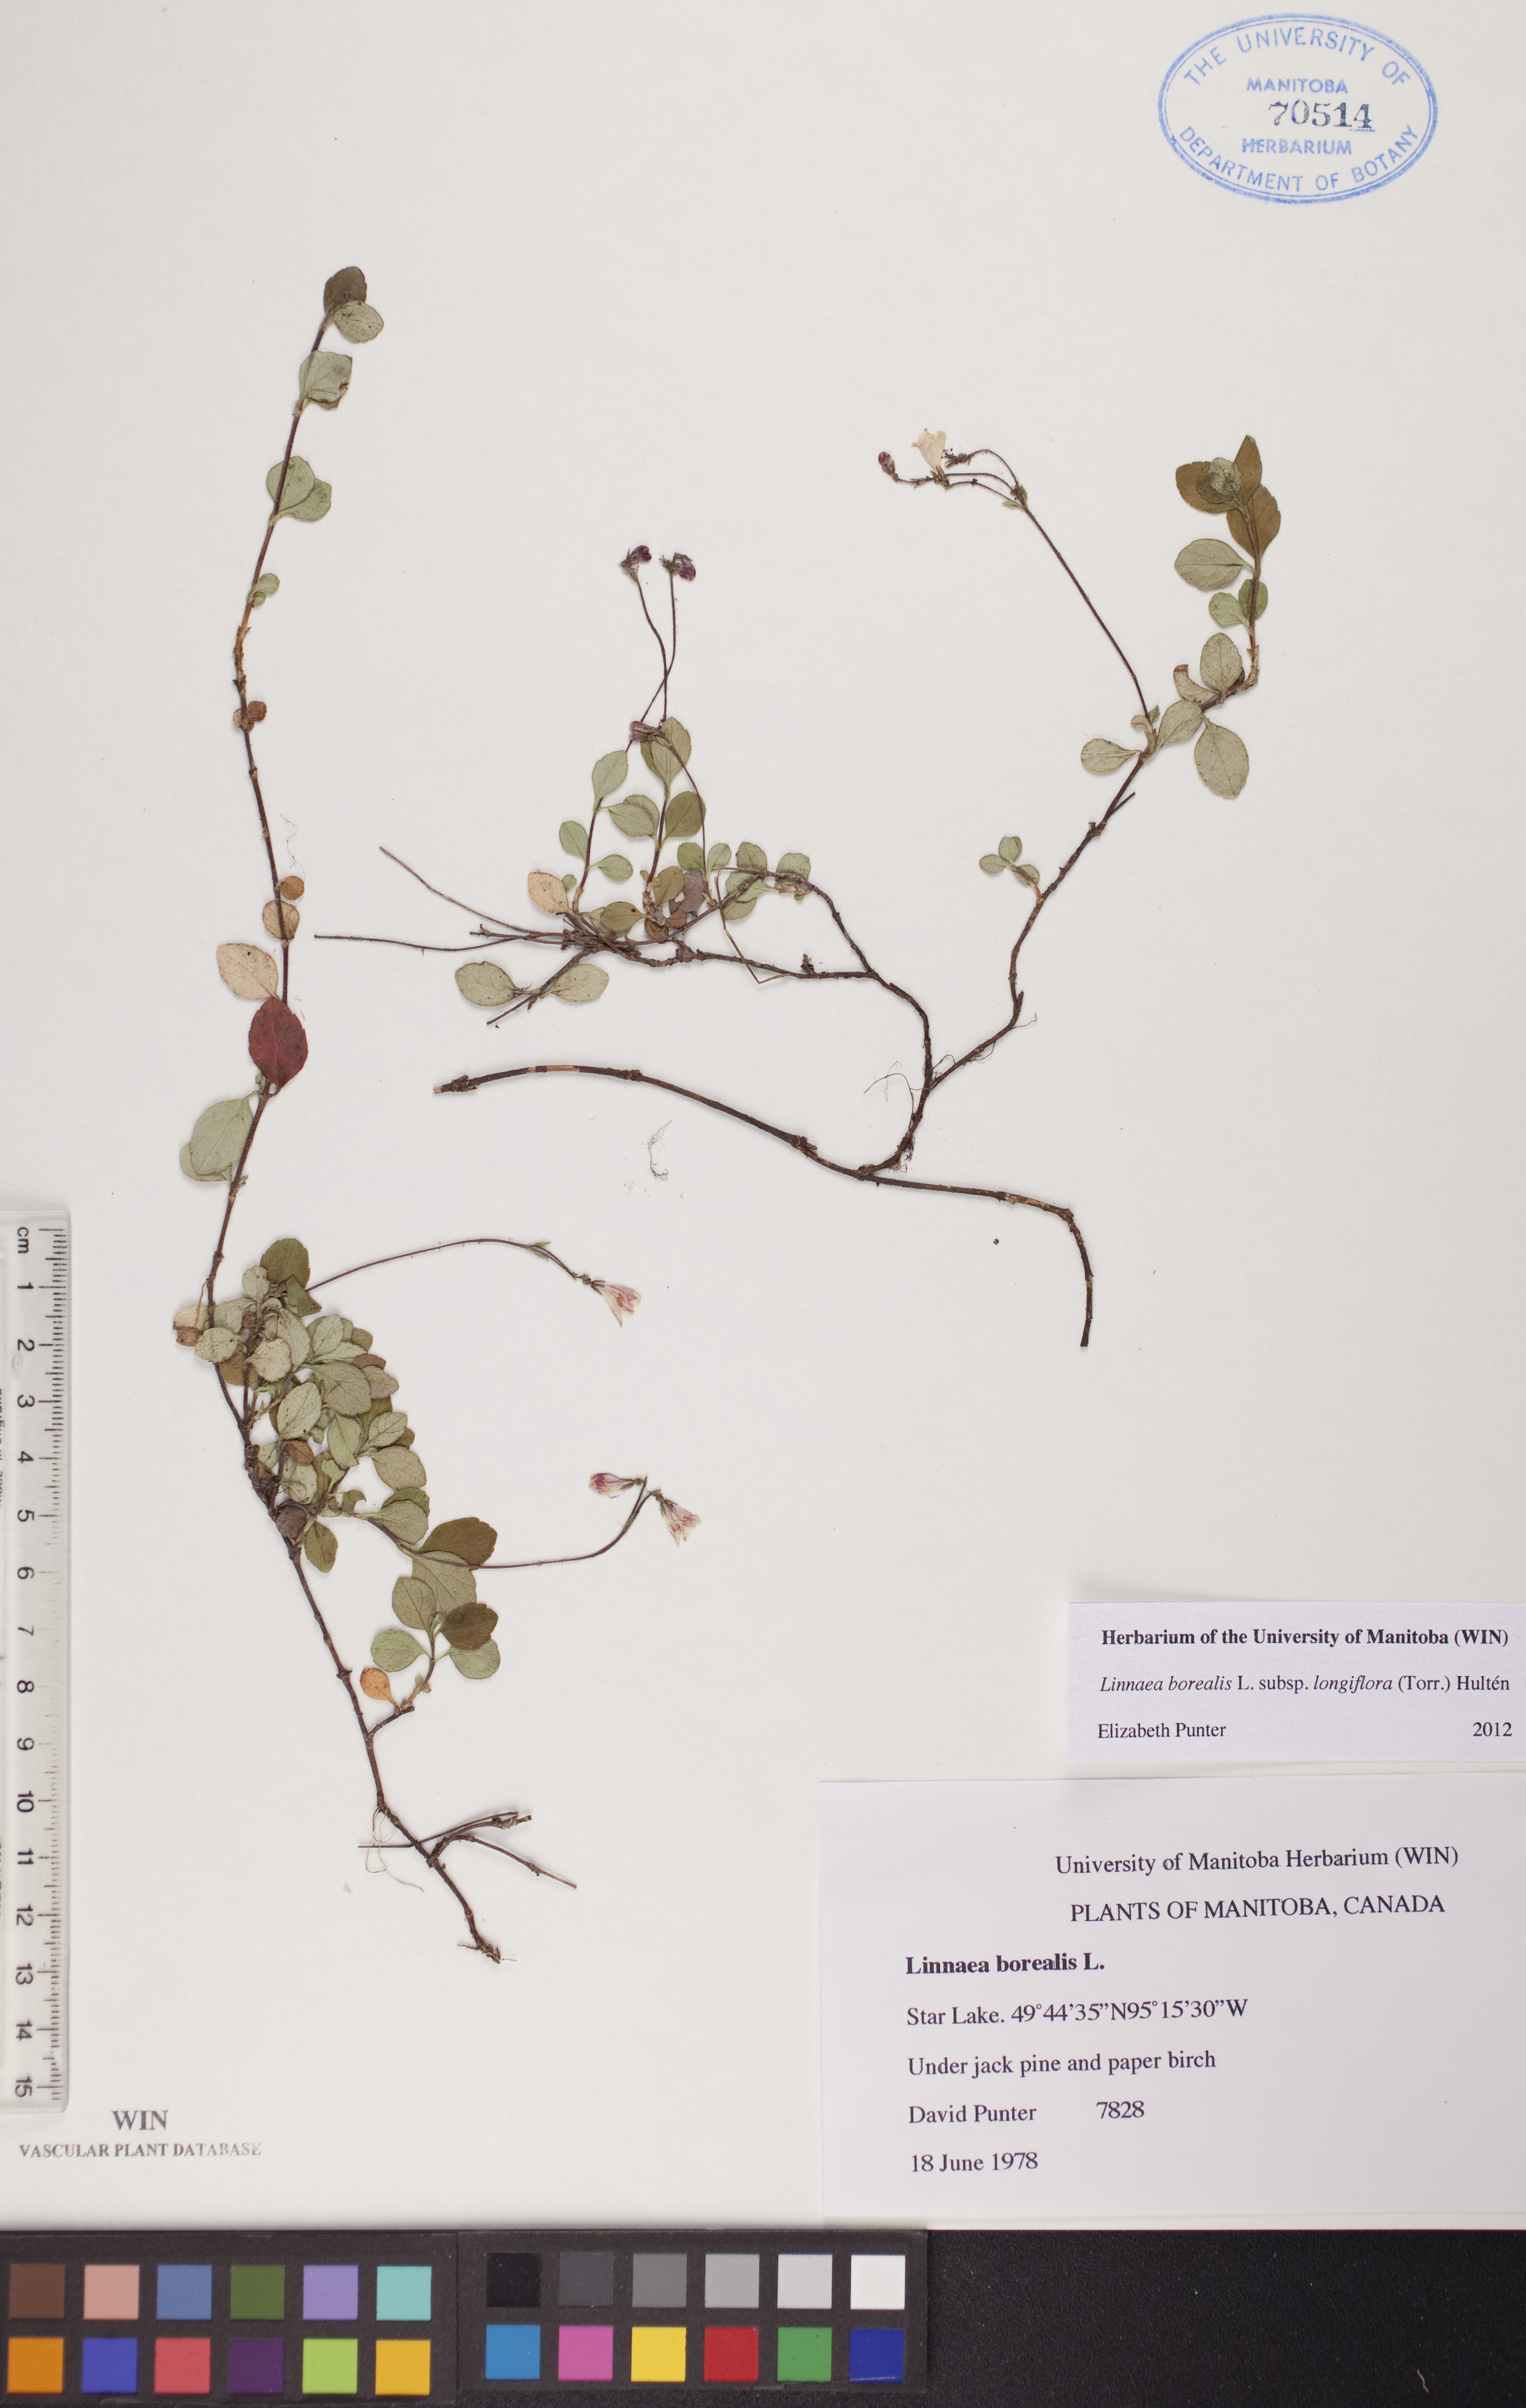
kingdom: Plantae
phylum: Tracheophyta
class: Magnoliopsida
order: Dipsacales
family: Caprifoliaceae
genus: Linnaea
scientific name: Linnaea borealis
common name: Twinflower
